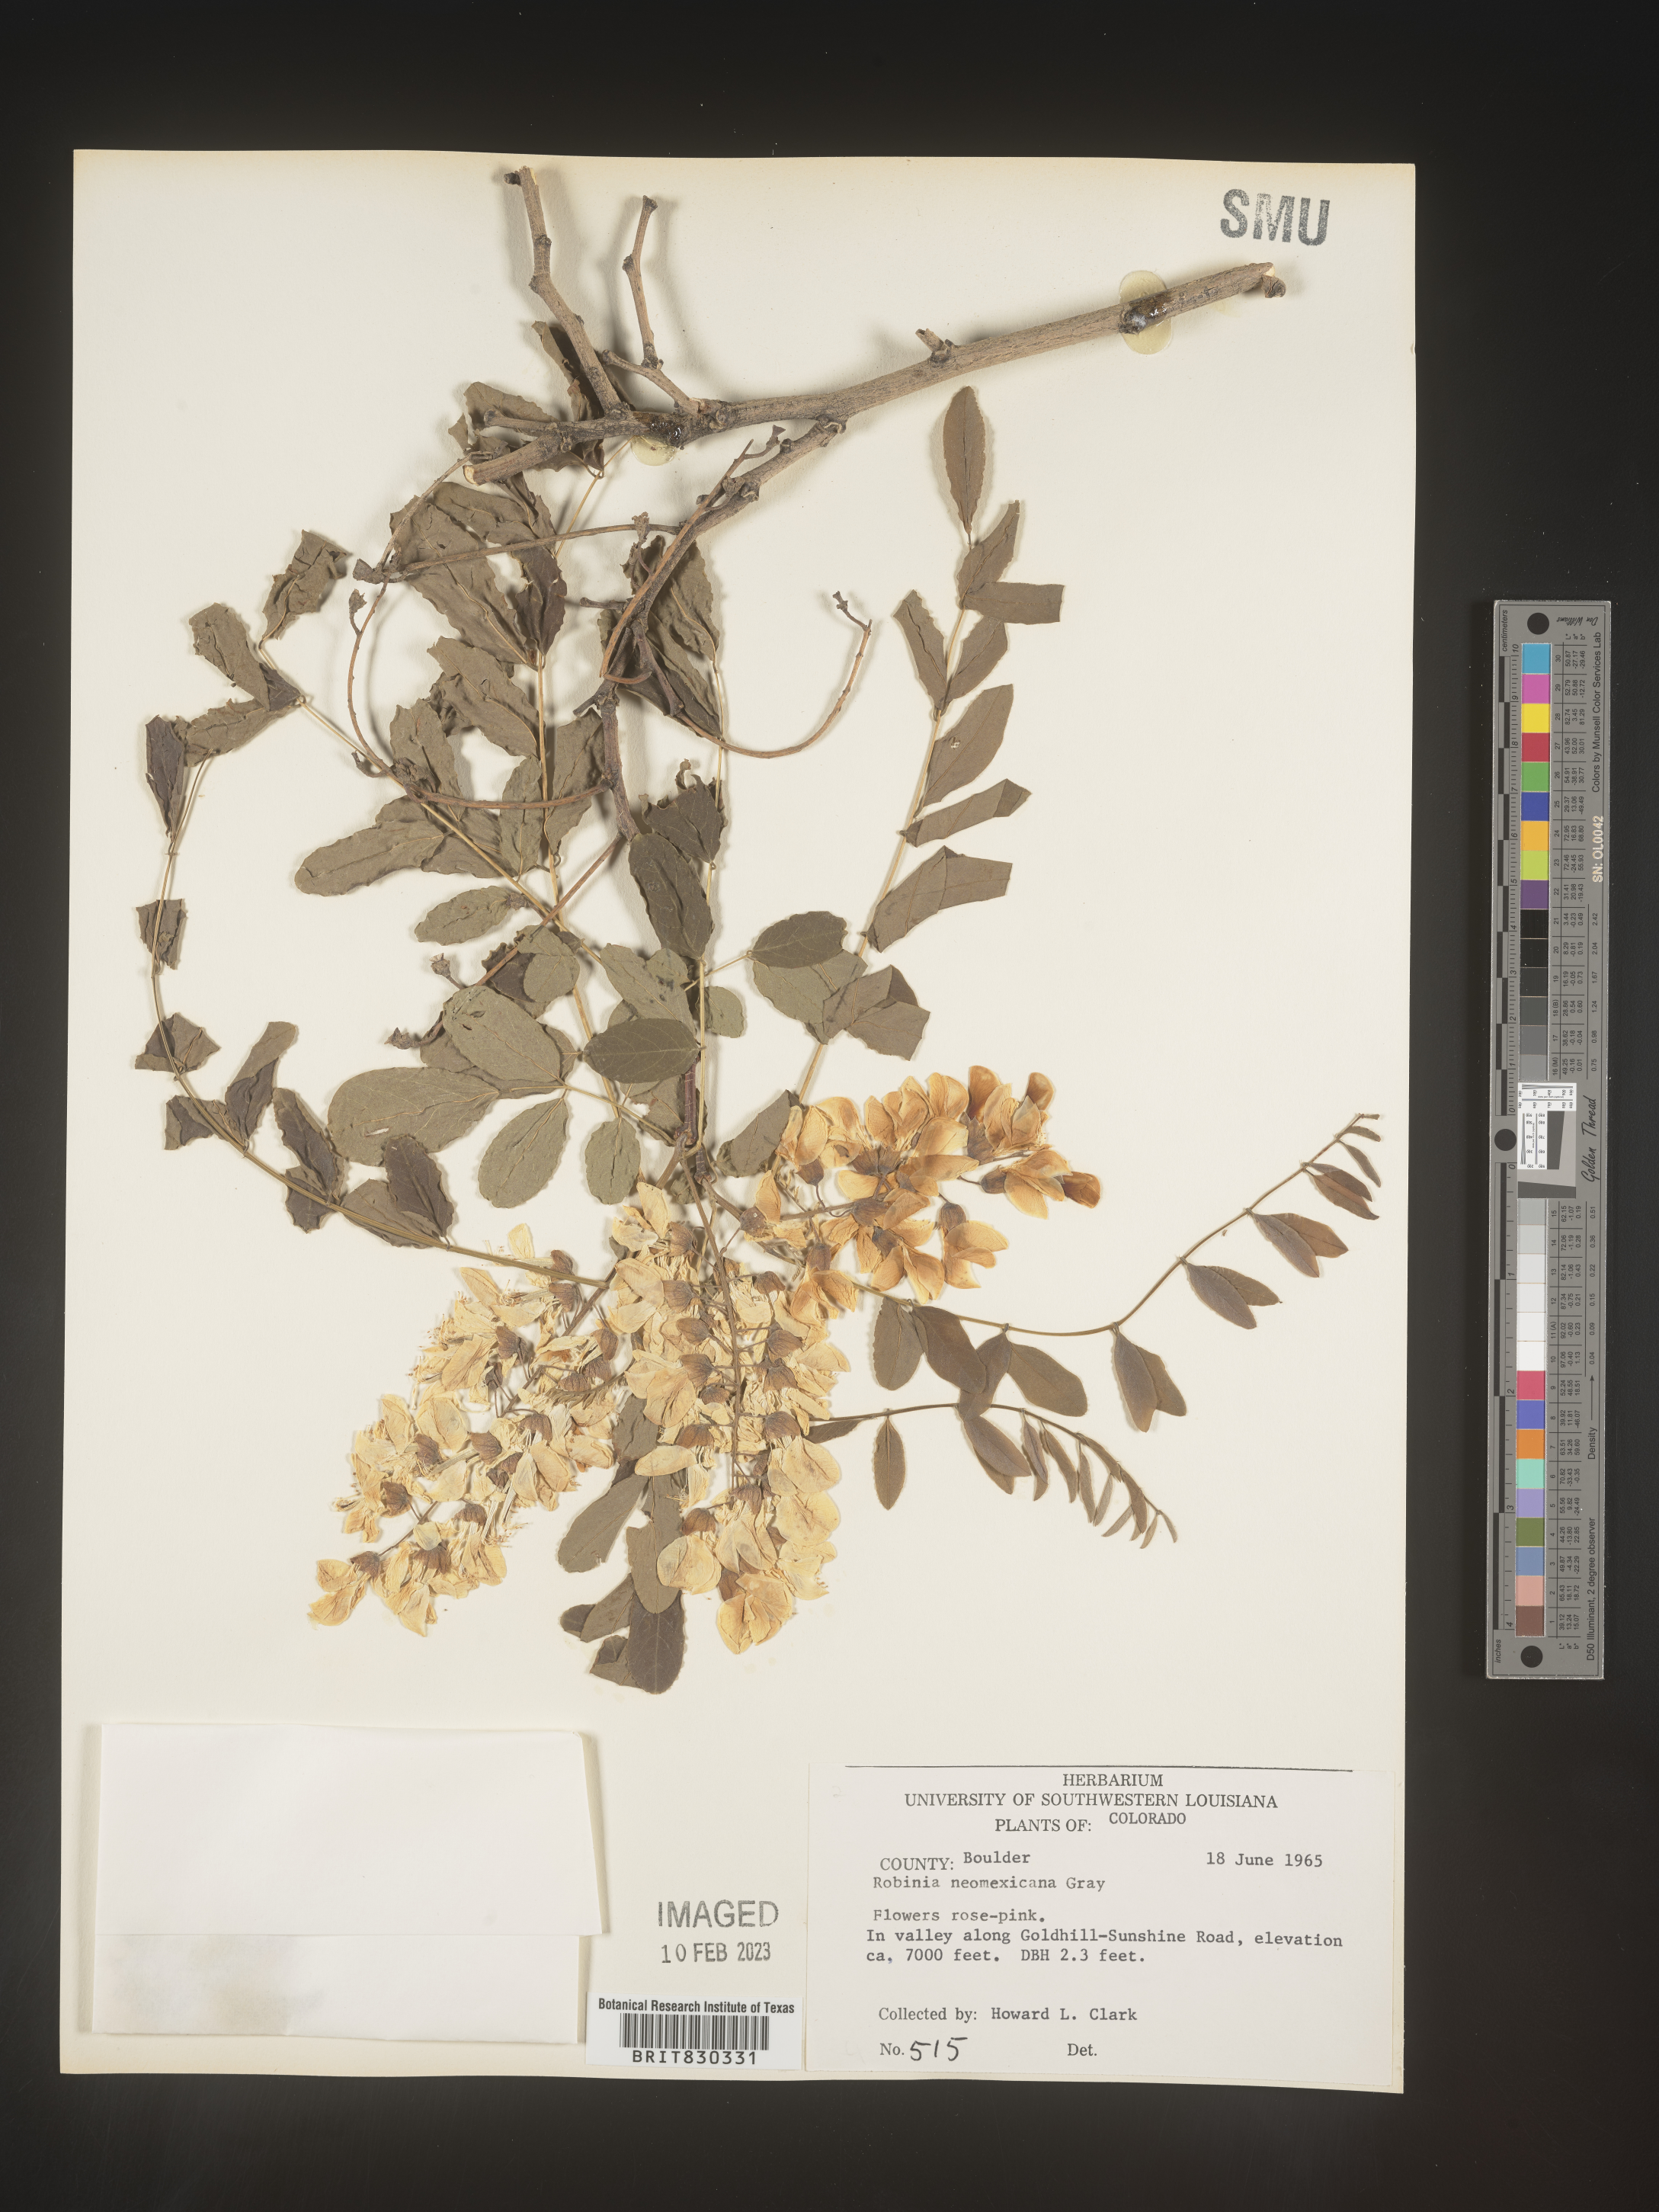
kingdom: Plantae
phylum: Tracheophyta
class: Magnoliopsida
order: Fabales
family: Fabaceae
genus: Robinia
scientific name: Robinia neomexicana
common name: New mexico locust
